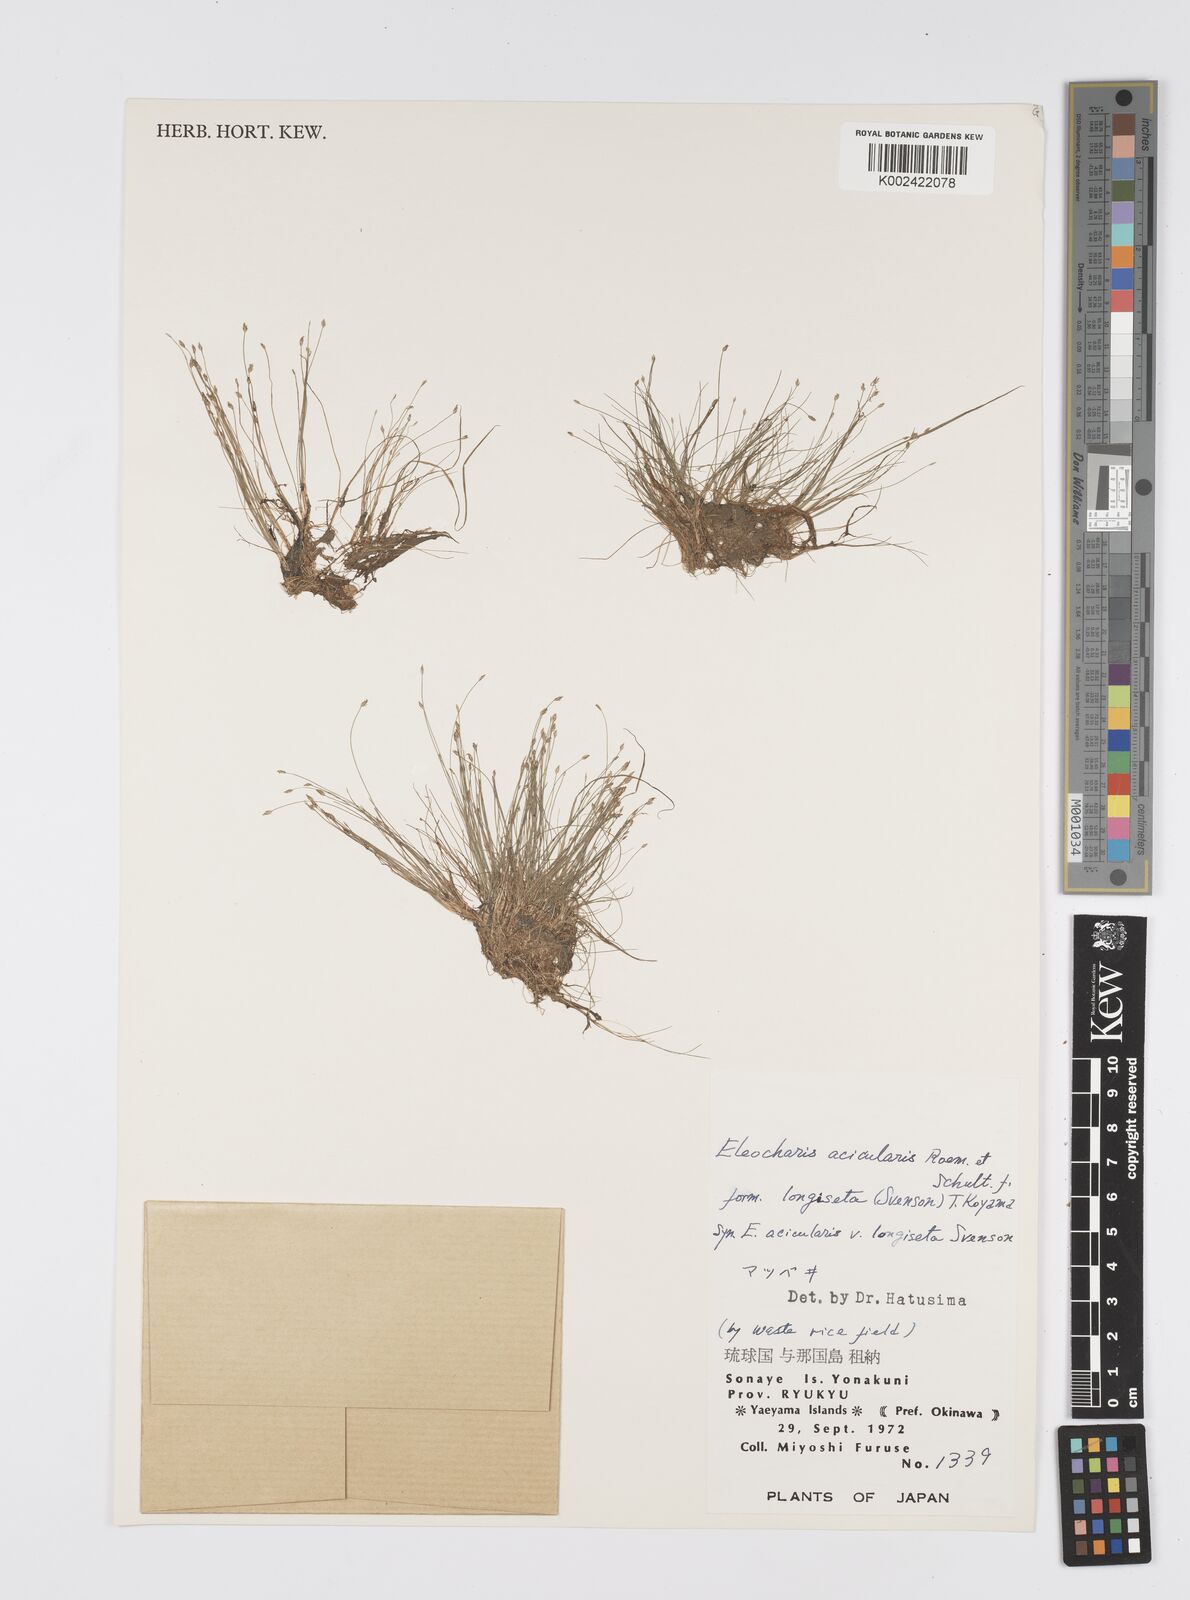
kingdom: Plantae
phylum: Tracheophyta
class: Liliopsida
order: Poales
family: Cyperaceae
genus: Eleocharis
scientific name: Eleocharis acicularis
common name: Needle spike-rush
